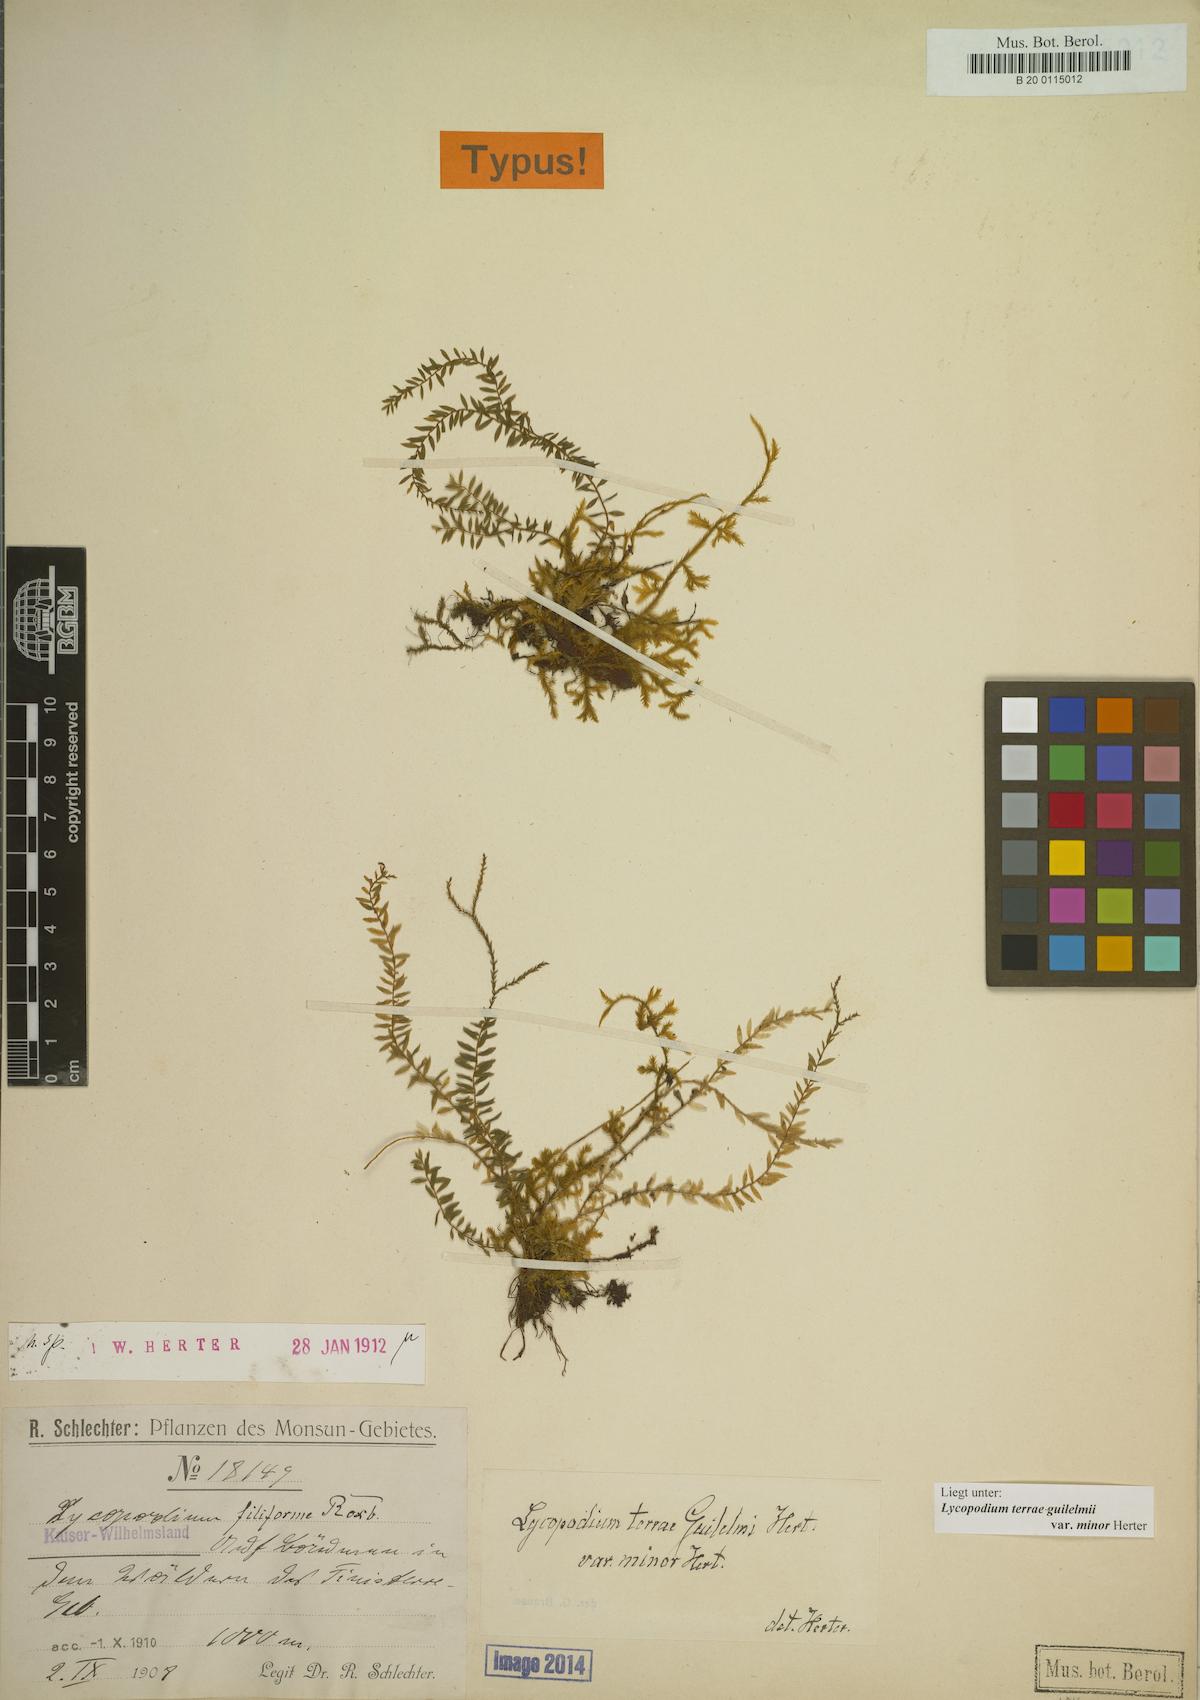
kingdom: Plantae
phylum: Tracheophyta
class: Lycopodiopsida
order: Lycopodiales
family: Lycopodiaceae
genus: Phlegmariurus
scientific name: Phlegmariurus terrae-guilelmii
